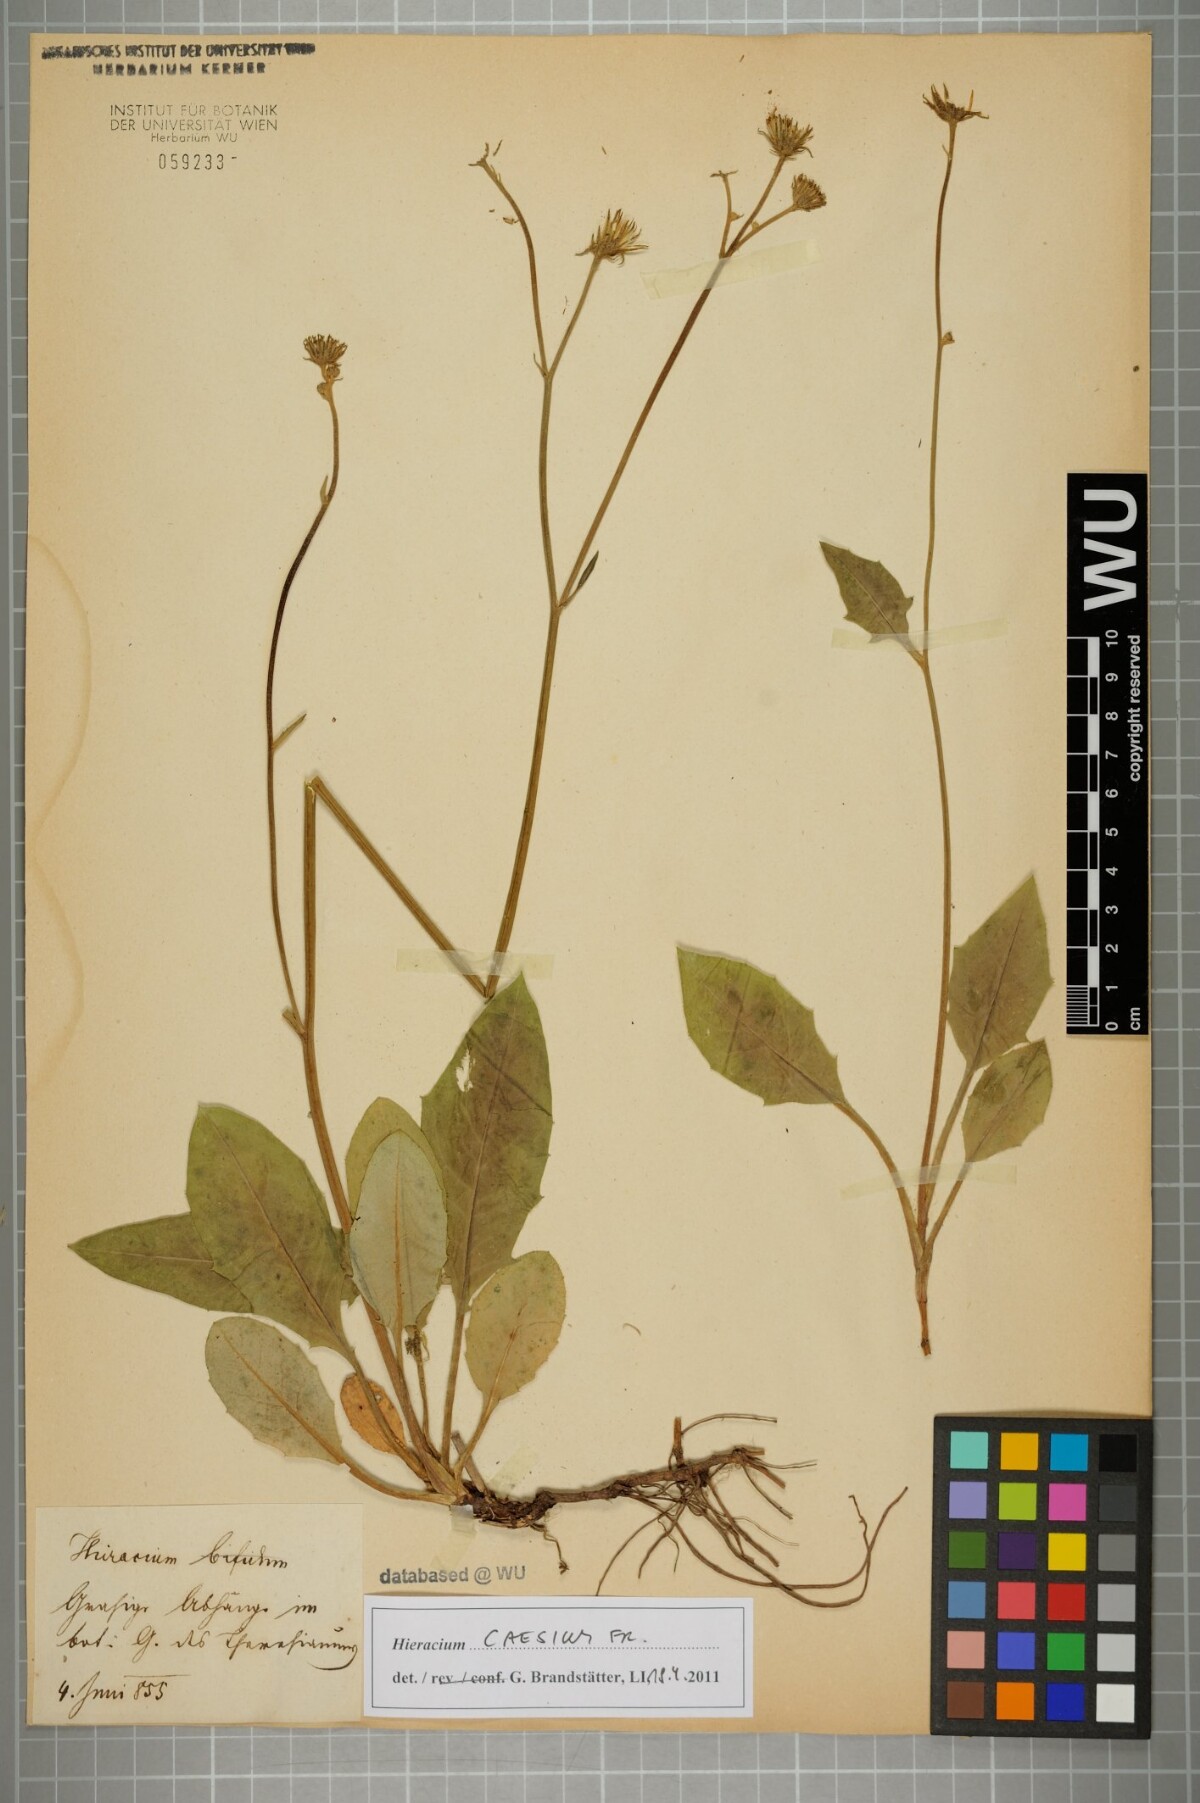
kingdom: Plantae
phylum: Tracheophyta
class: Magnoliopsida
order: Asterales
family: Asteraceae
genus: Hieracium
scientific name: Hieracium caesium
